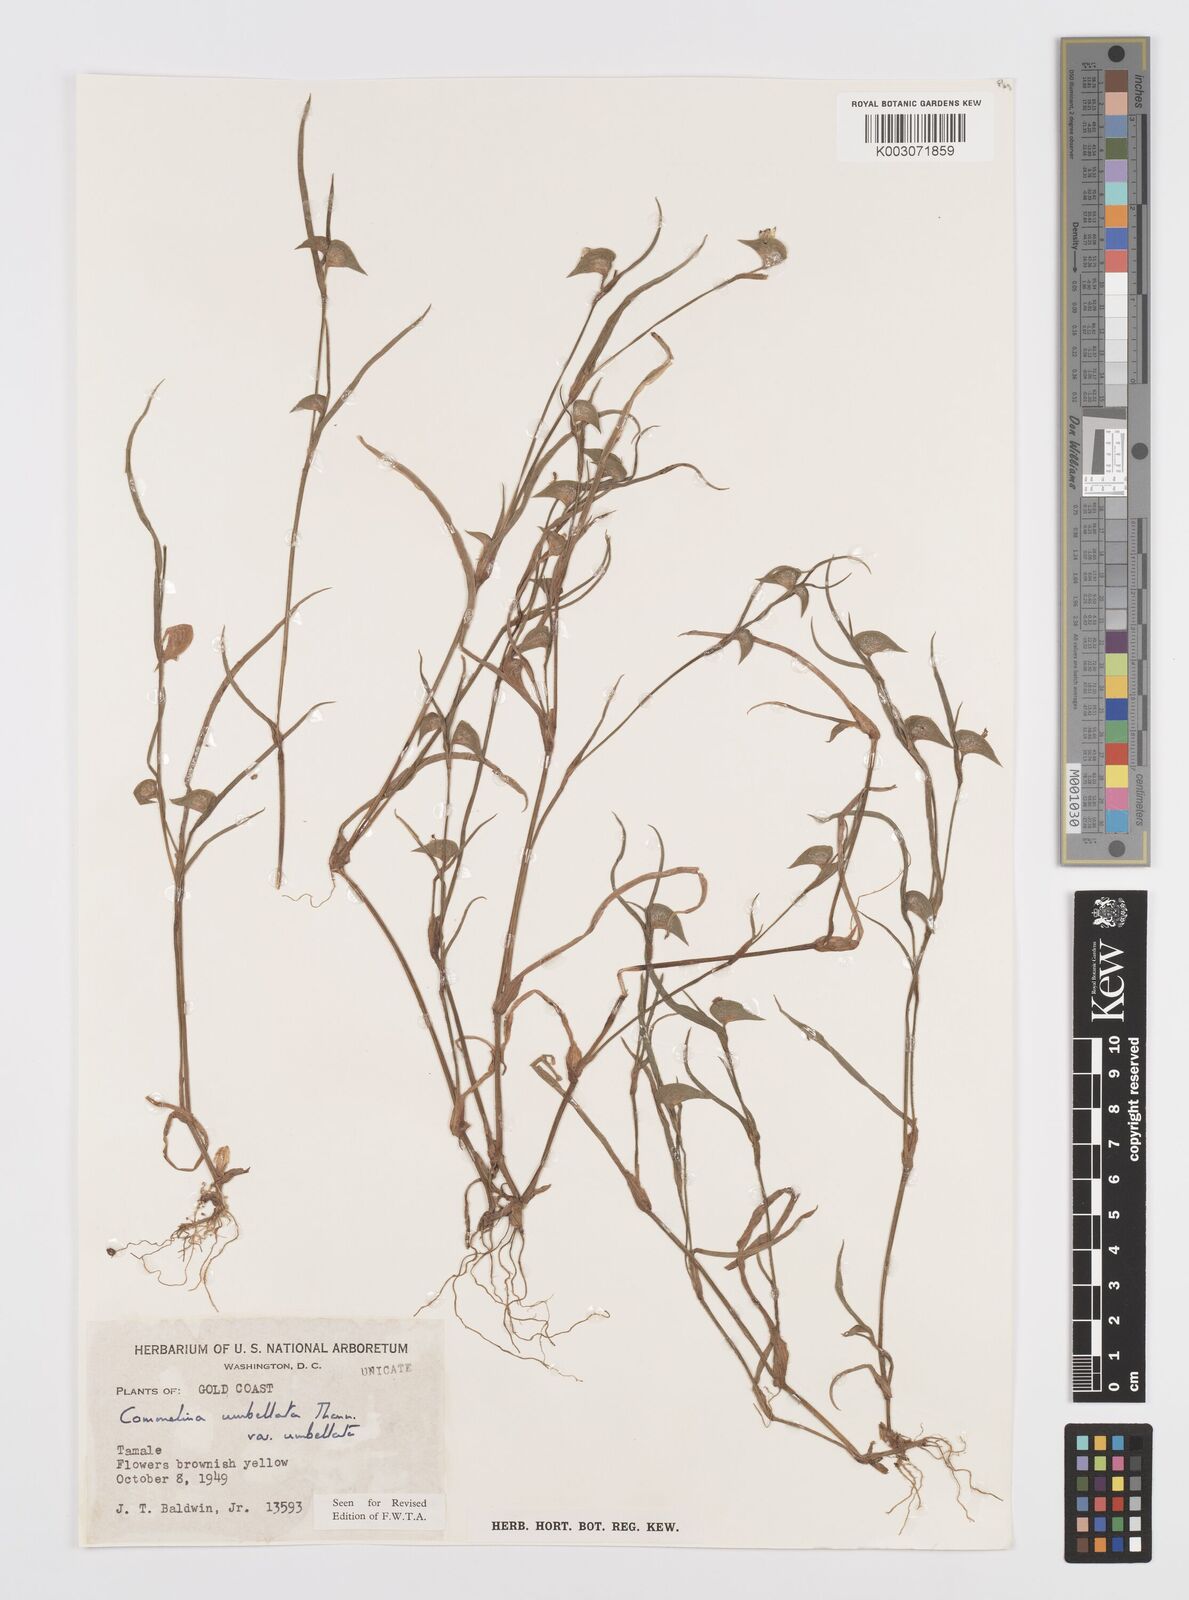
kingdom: Plantae
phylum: Tracheophyta
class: Liliopsida
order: Commelinales
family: Commelinaceae
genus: Commelina
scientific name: Commelina
